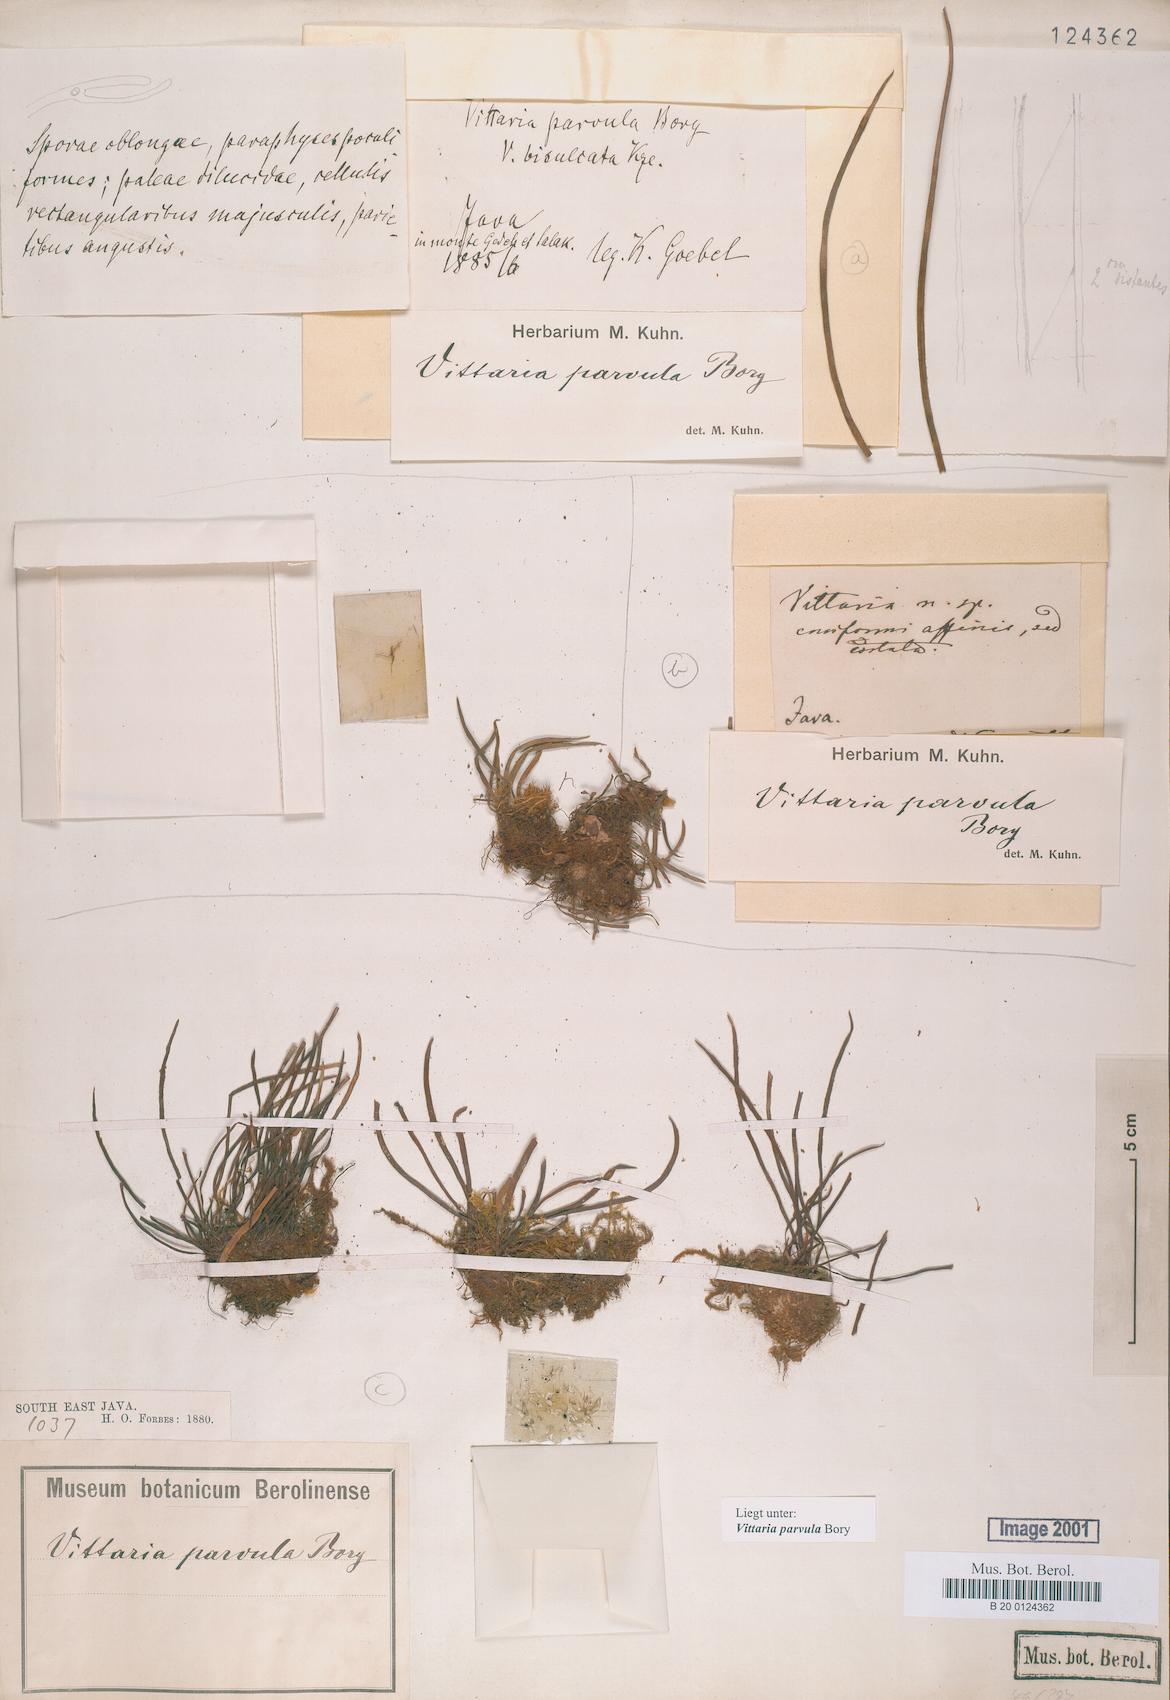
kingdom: Plantae
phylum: Tracheophyta
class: Polypodiopsida
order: Polypodiales
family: Pteridaceae
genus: Haplopteris
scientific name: Haplopteris elongata
